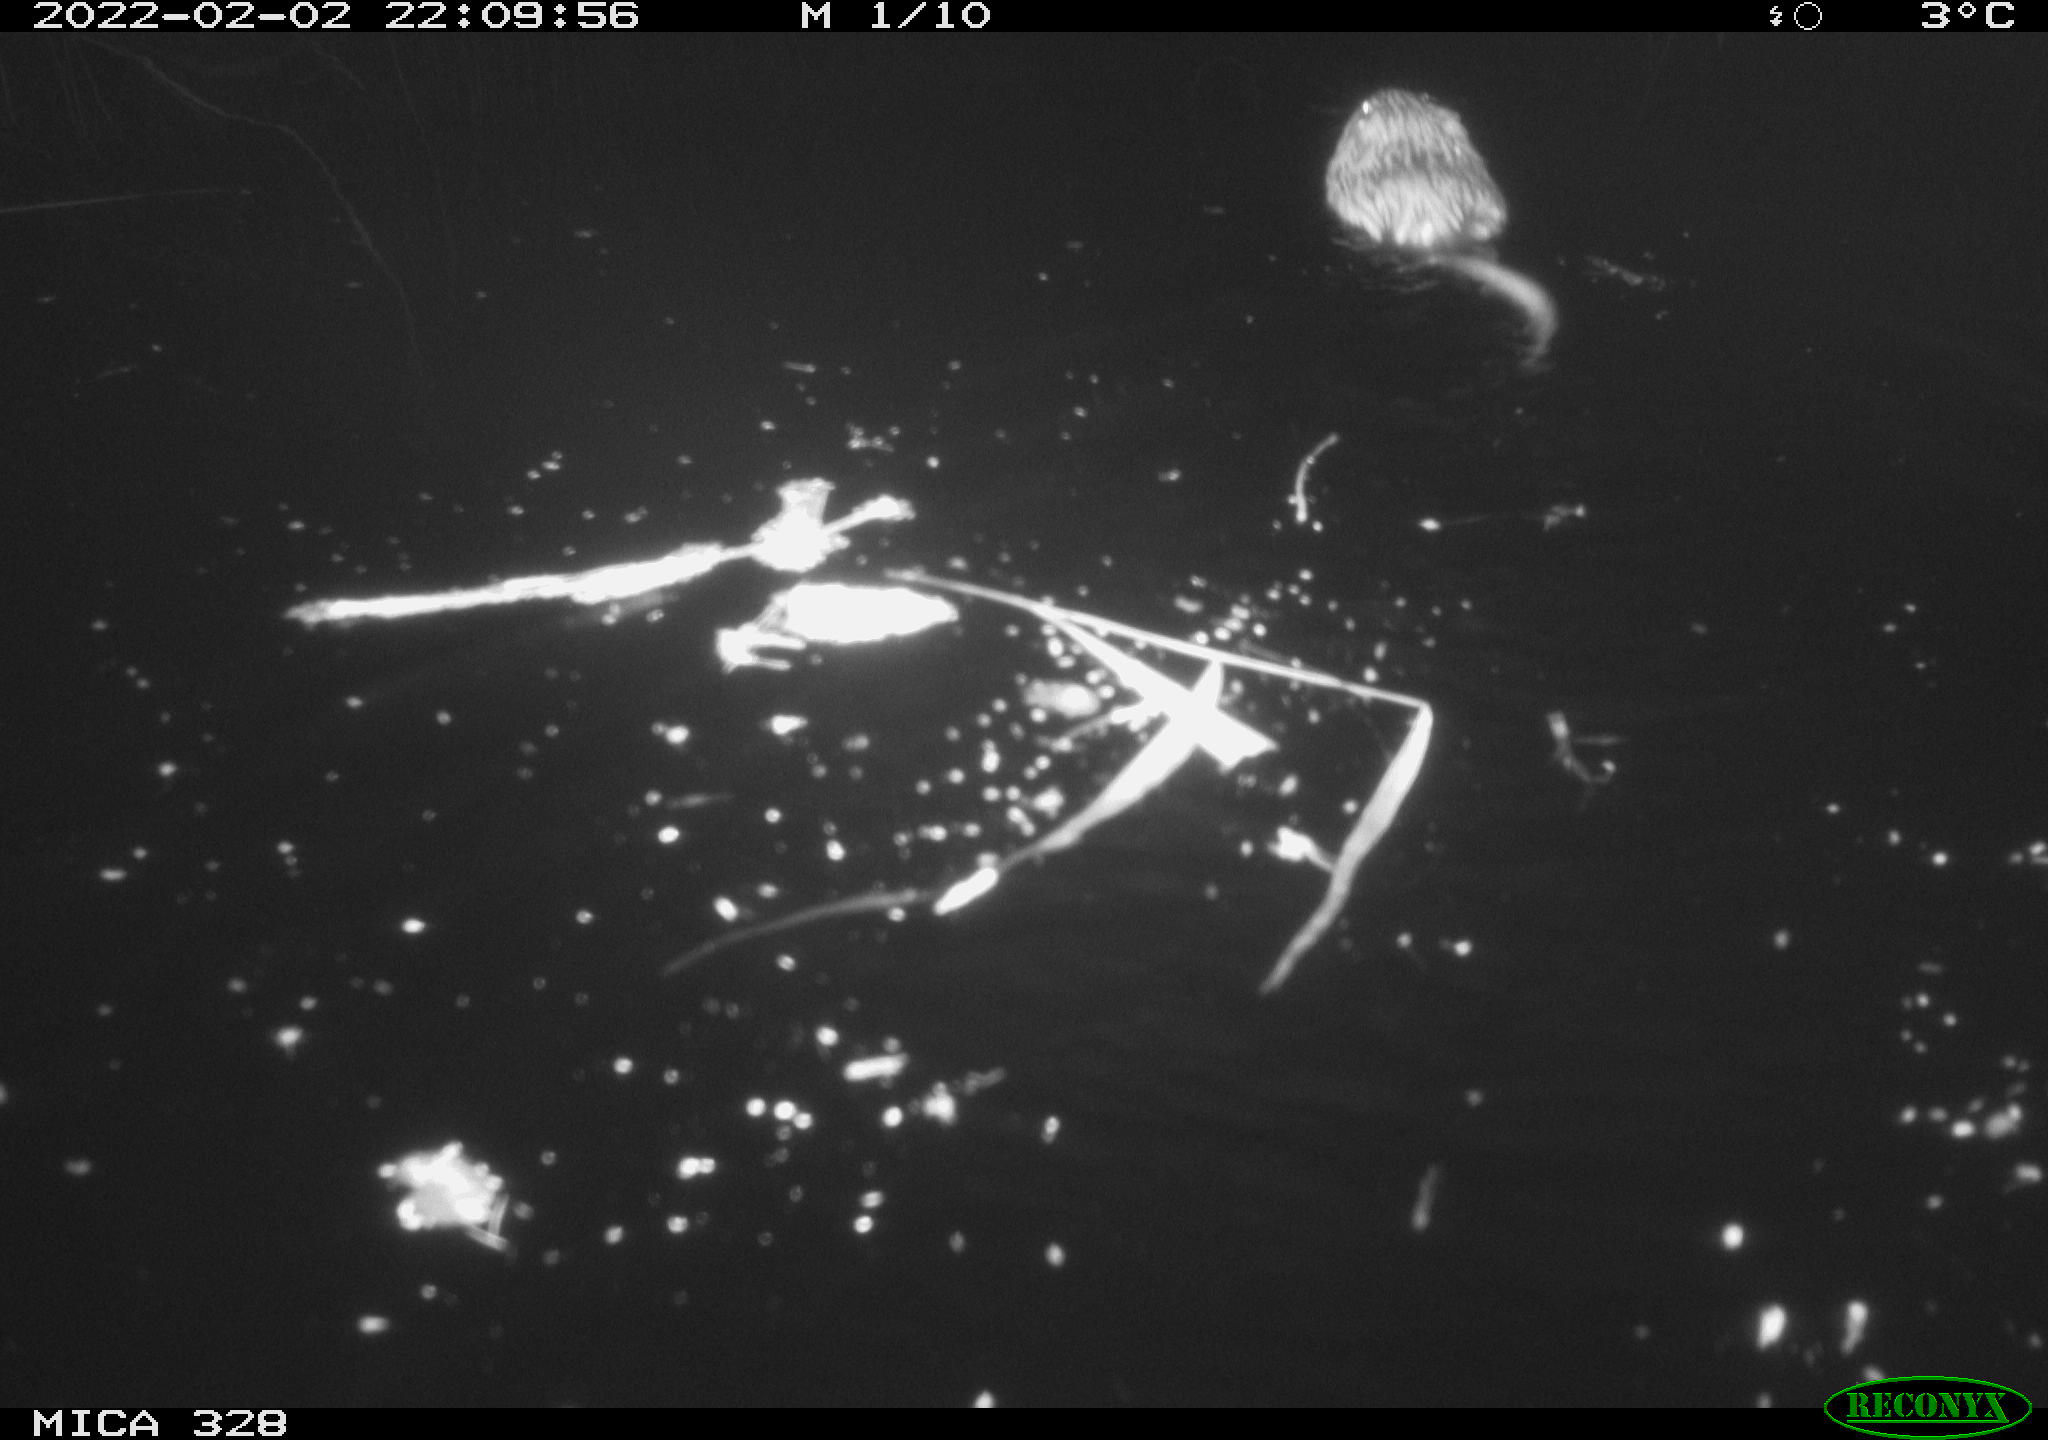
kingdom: Animalia
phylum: Chordata
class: Mammalia
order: Rodentia
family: Cricetidae
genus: Ondatra
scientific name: Ondatra zibethicus
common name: Muskrat
